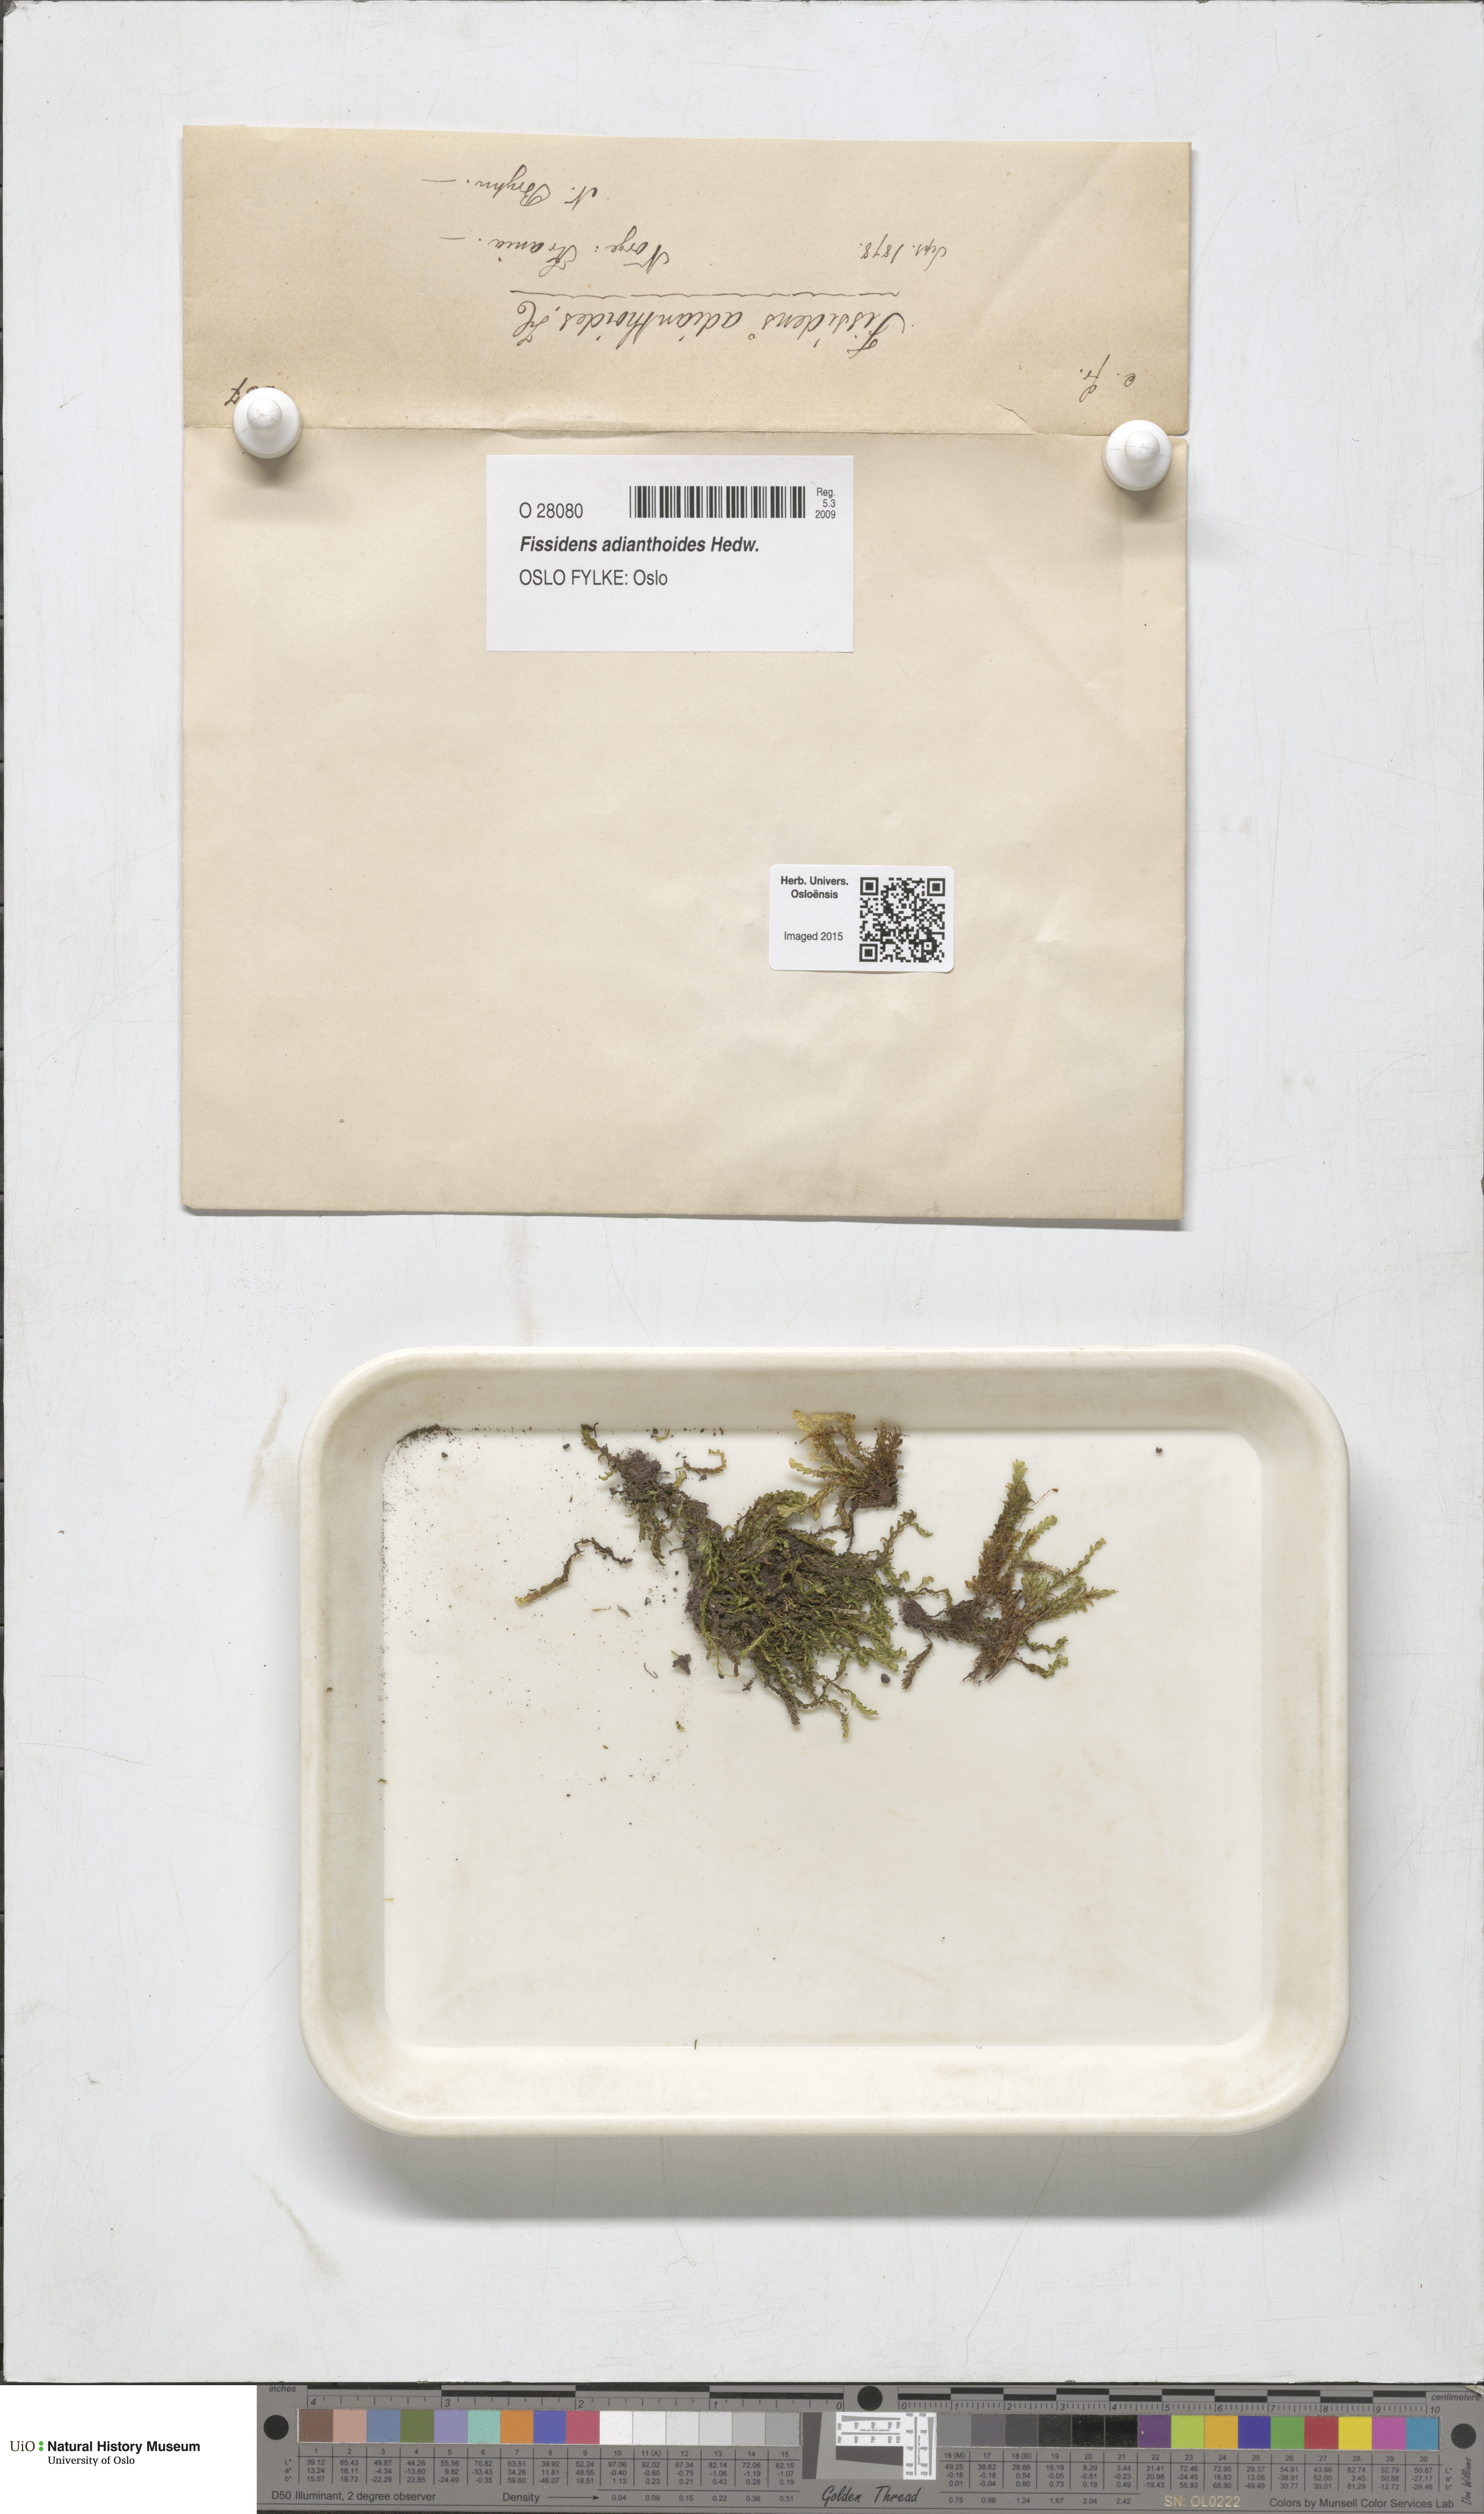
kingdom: Plantae
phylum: Bryophyta
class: Bryopsida
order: Dicranales
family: Fissidentaceae
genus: Fissidens
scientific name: Fissidens adianthoides
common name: Maidenhair pocket moss
